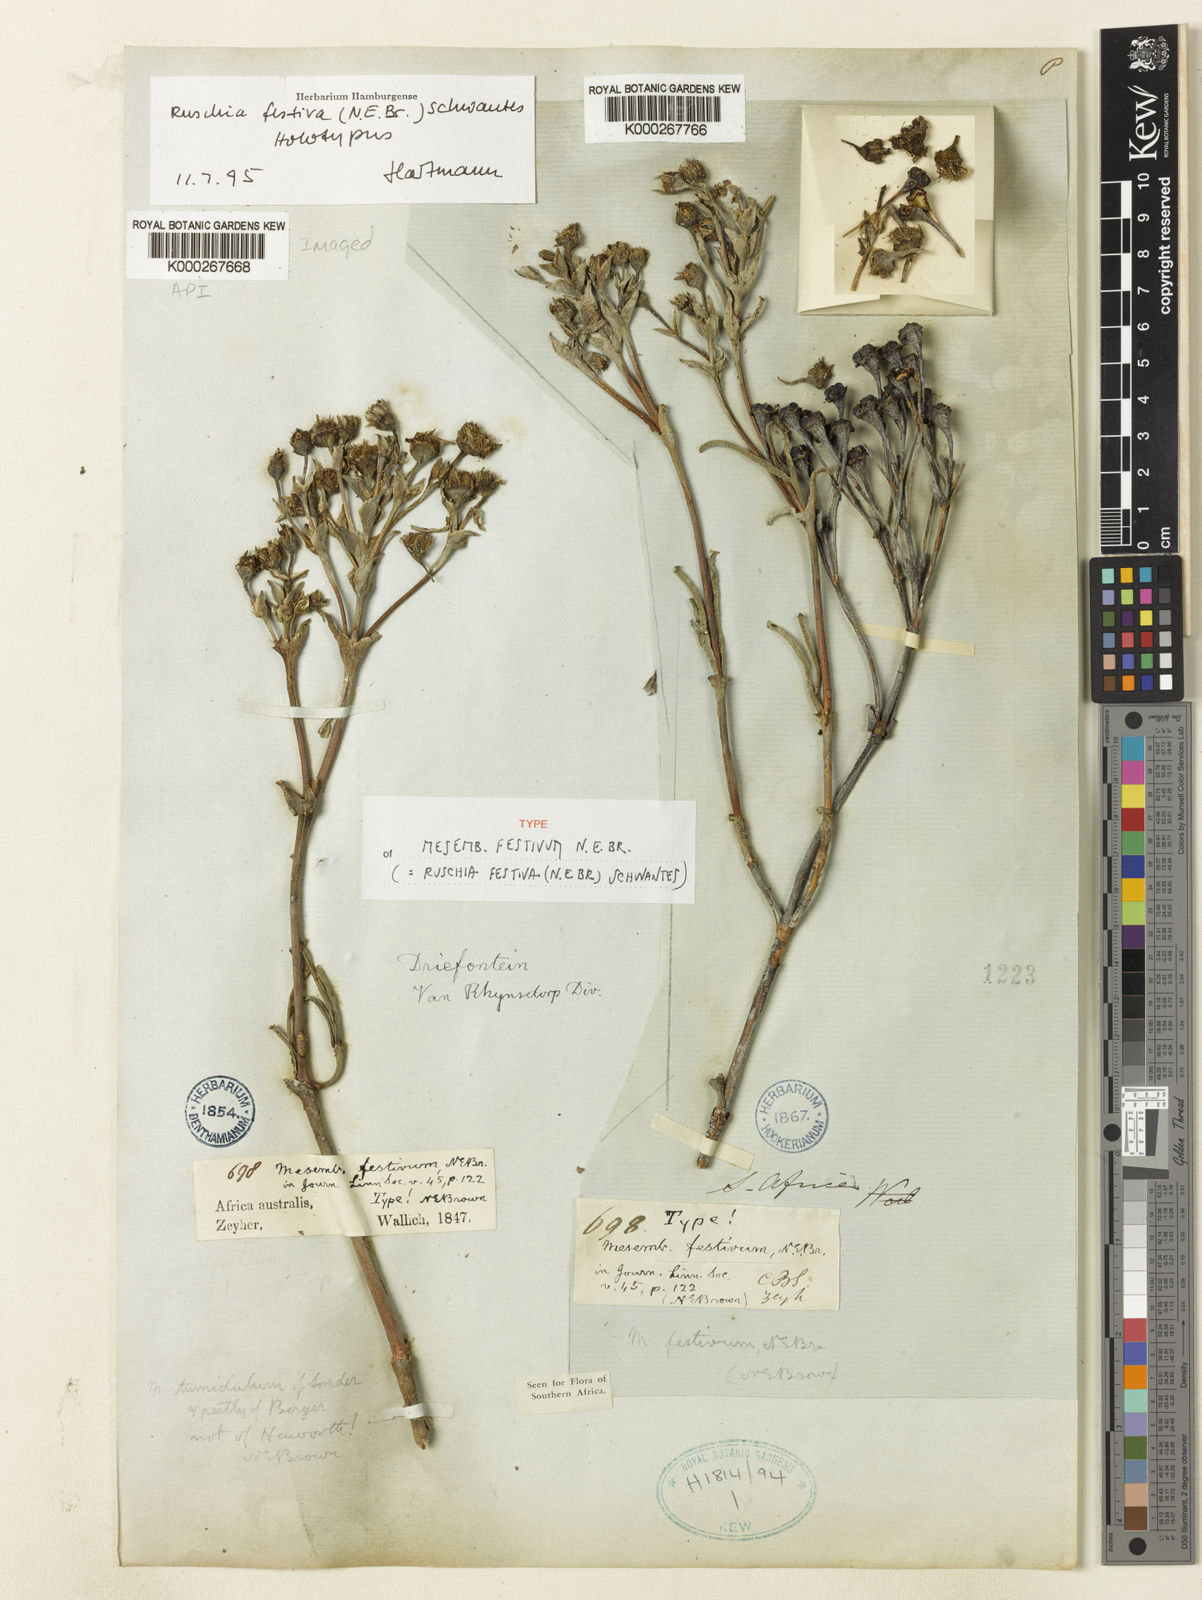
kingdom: Plantae
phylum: Tracheophyta
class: Magnoliopsida
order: Caryophyllales
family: Aizoaceae
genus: Ruschia
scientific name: Ruschia festiva
